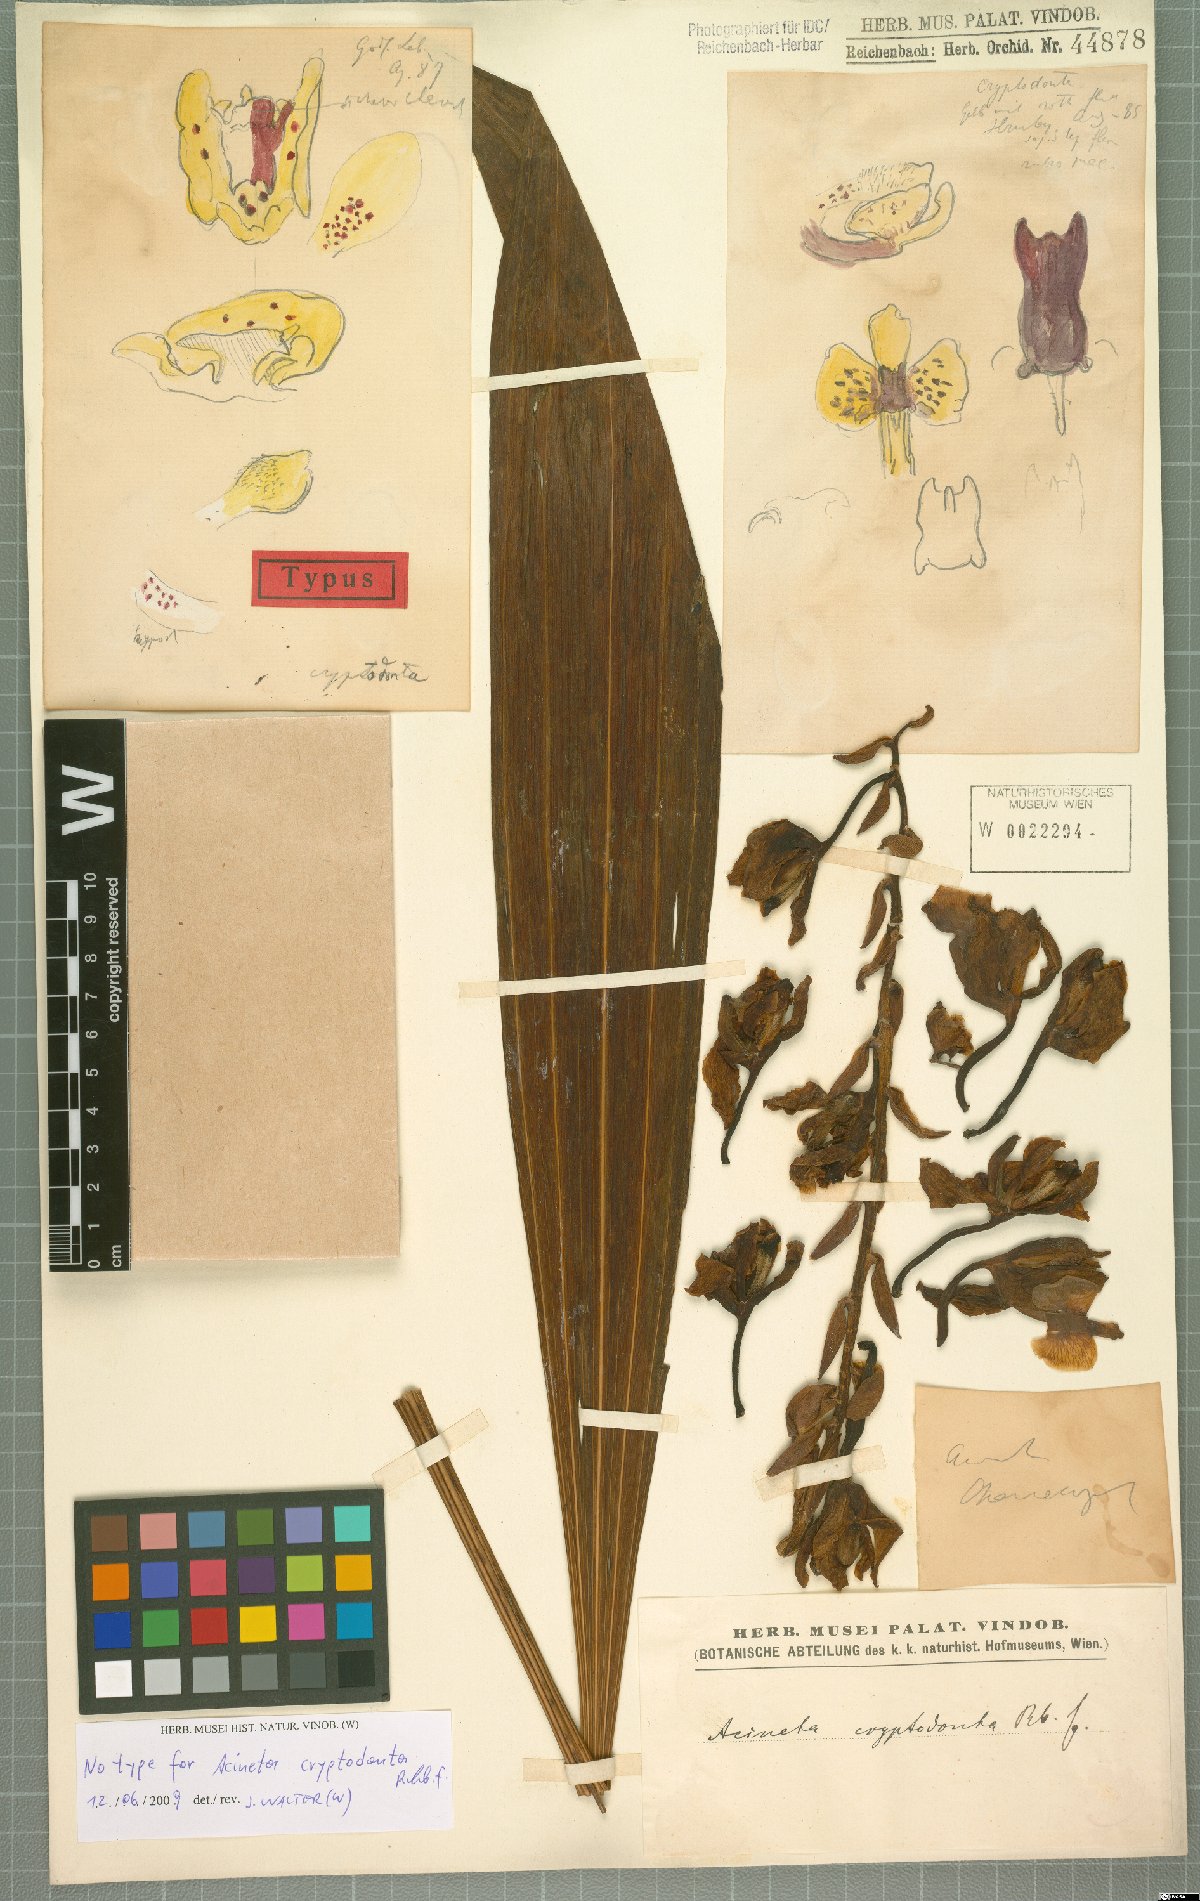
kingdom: Plantae
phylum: Tracheophyta
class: Liliopsida
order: Asparagales
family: Orchidaceae
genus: Acineta
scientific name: Acineta cryptodonta
